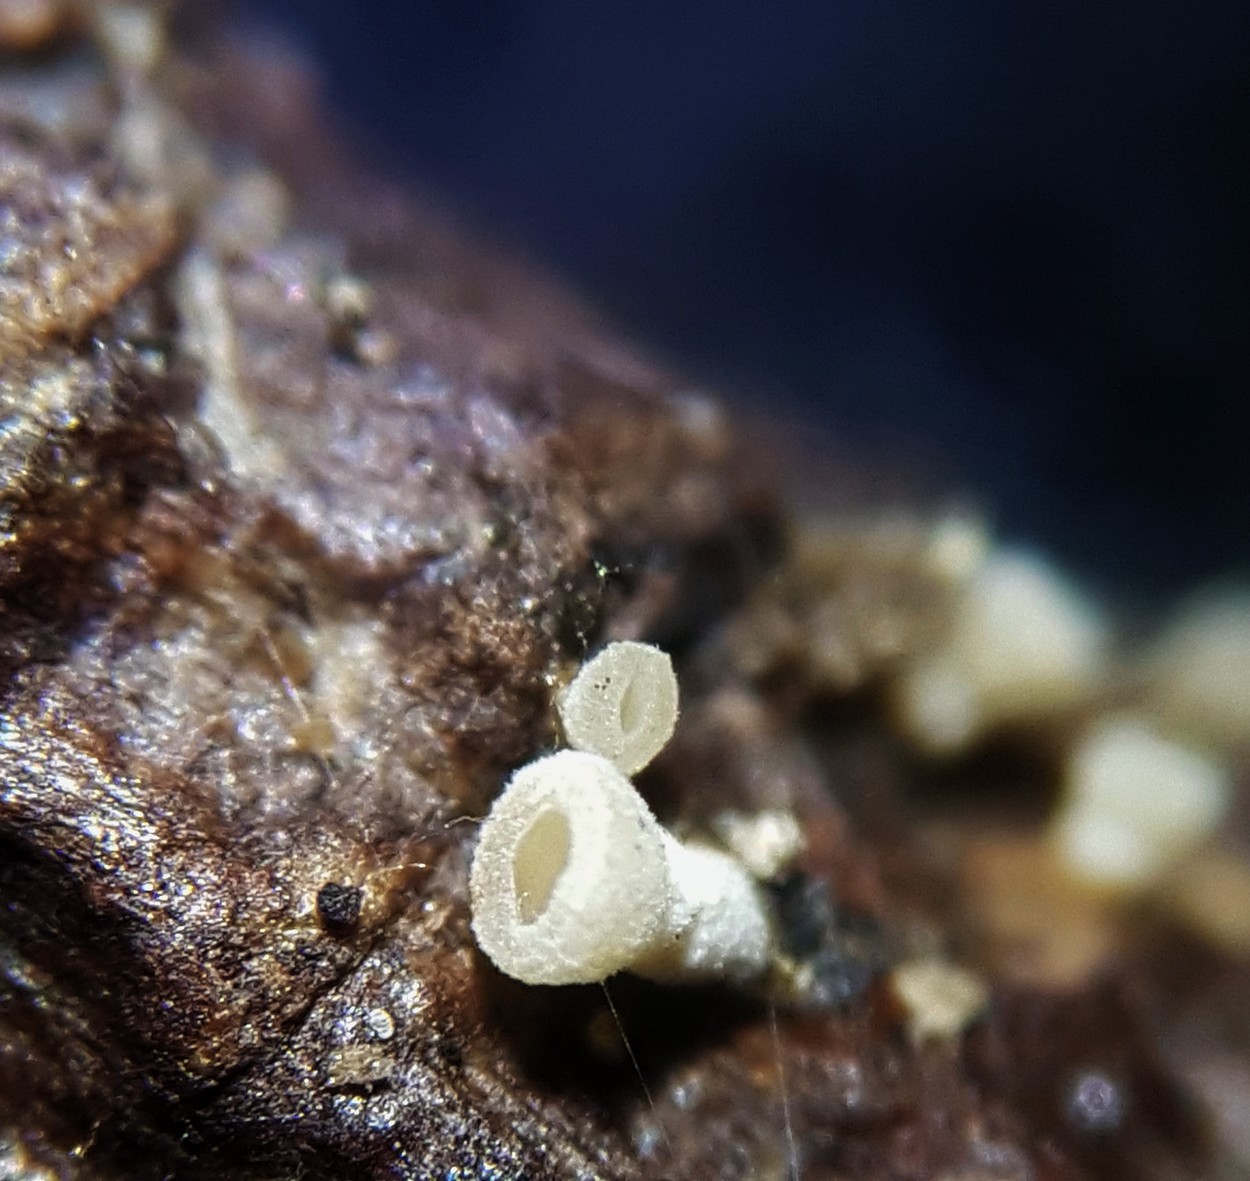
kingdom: Fungi
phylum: Ascomycota
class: Leotiomycetes
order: Helotiales
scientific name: Helotiales
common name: stilkskiveordenen
